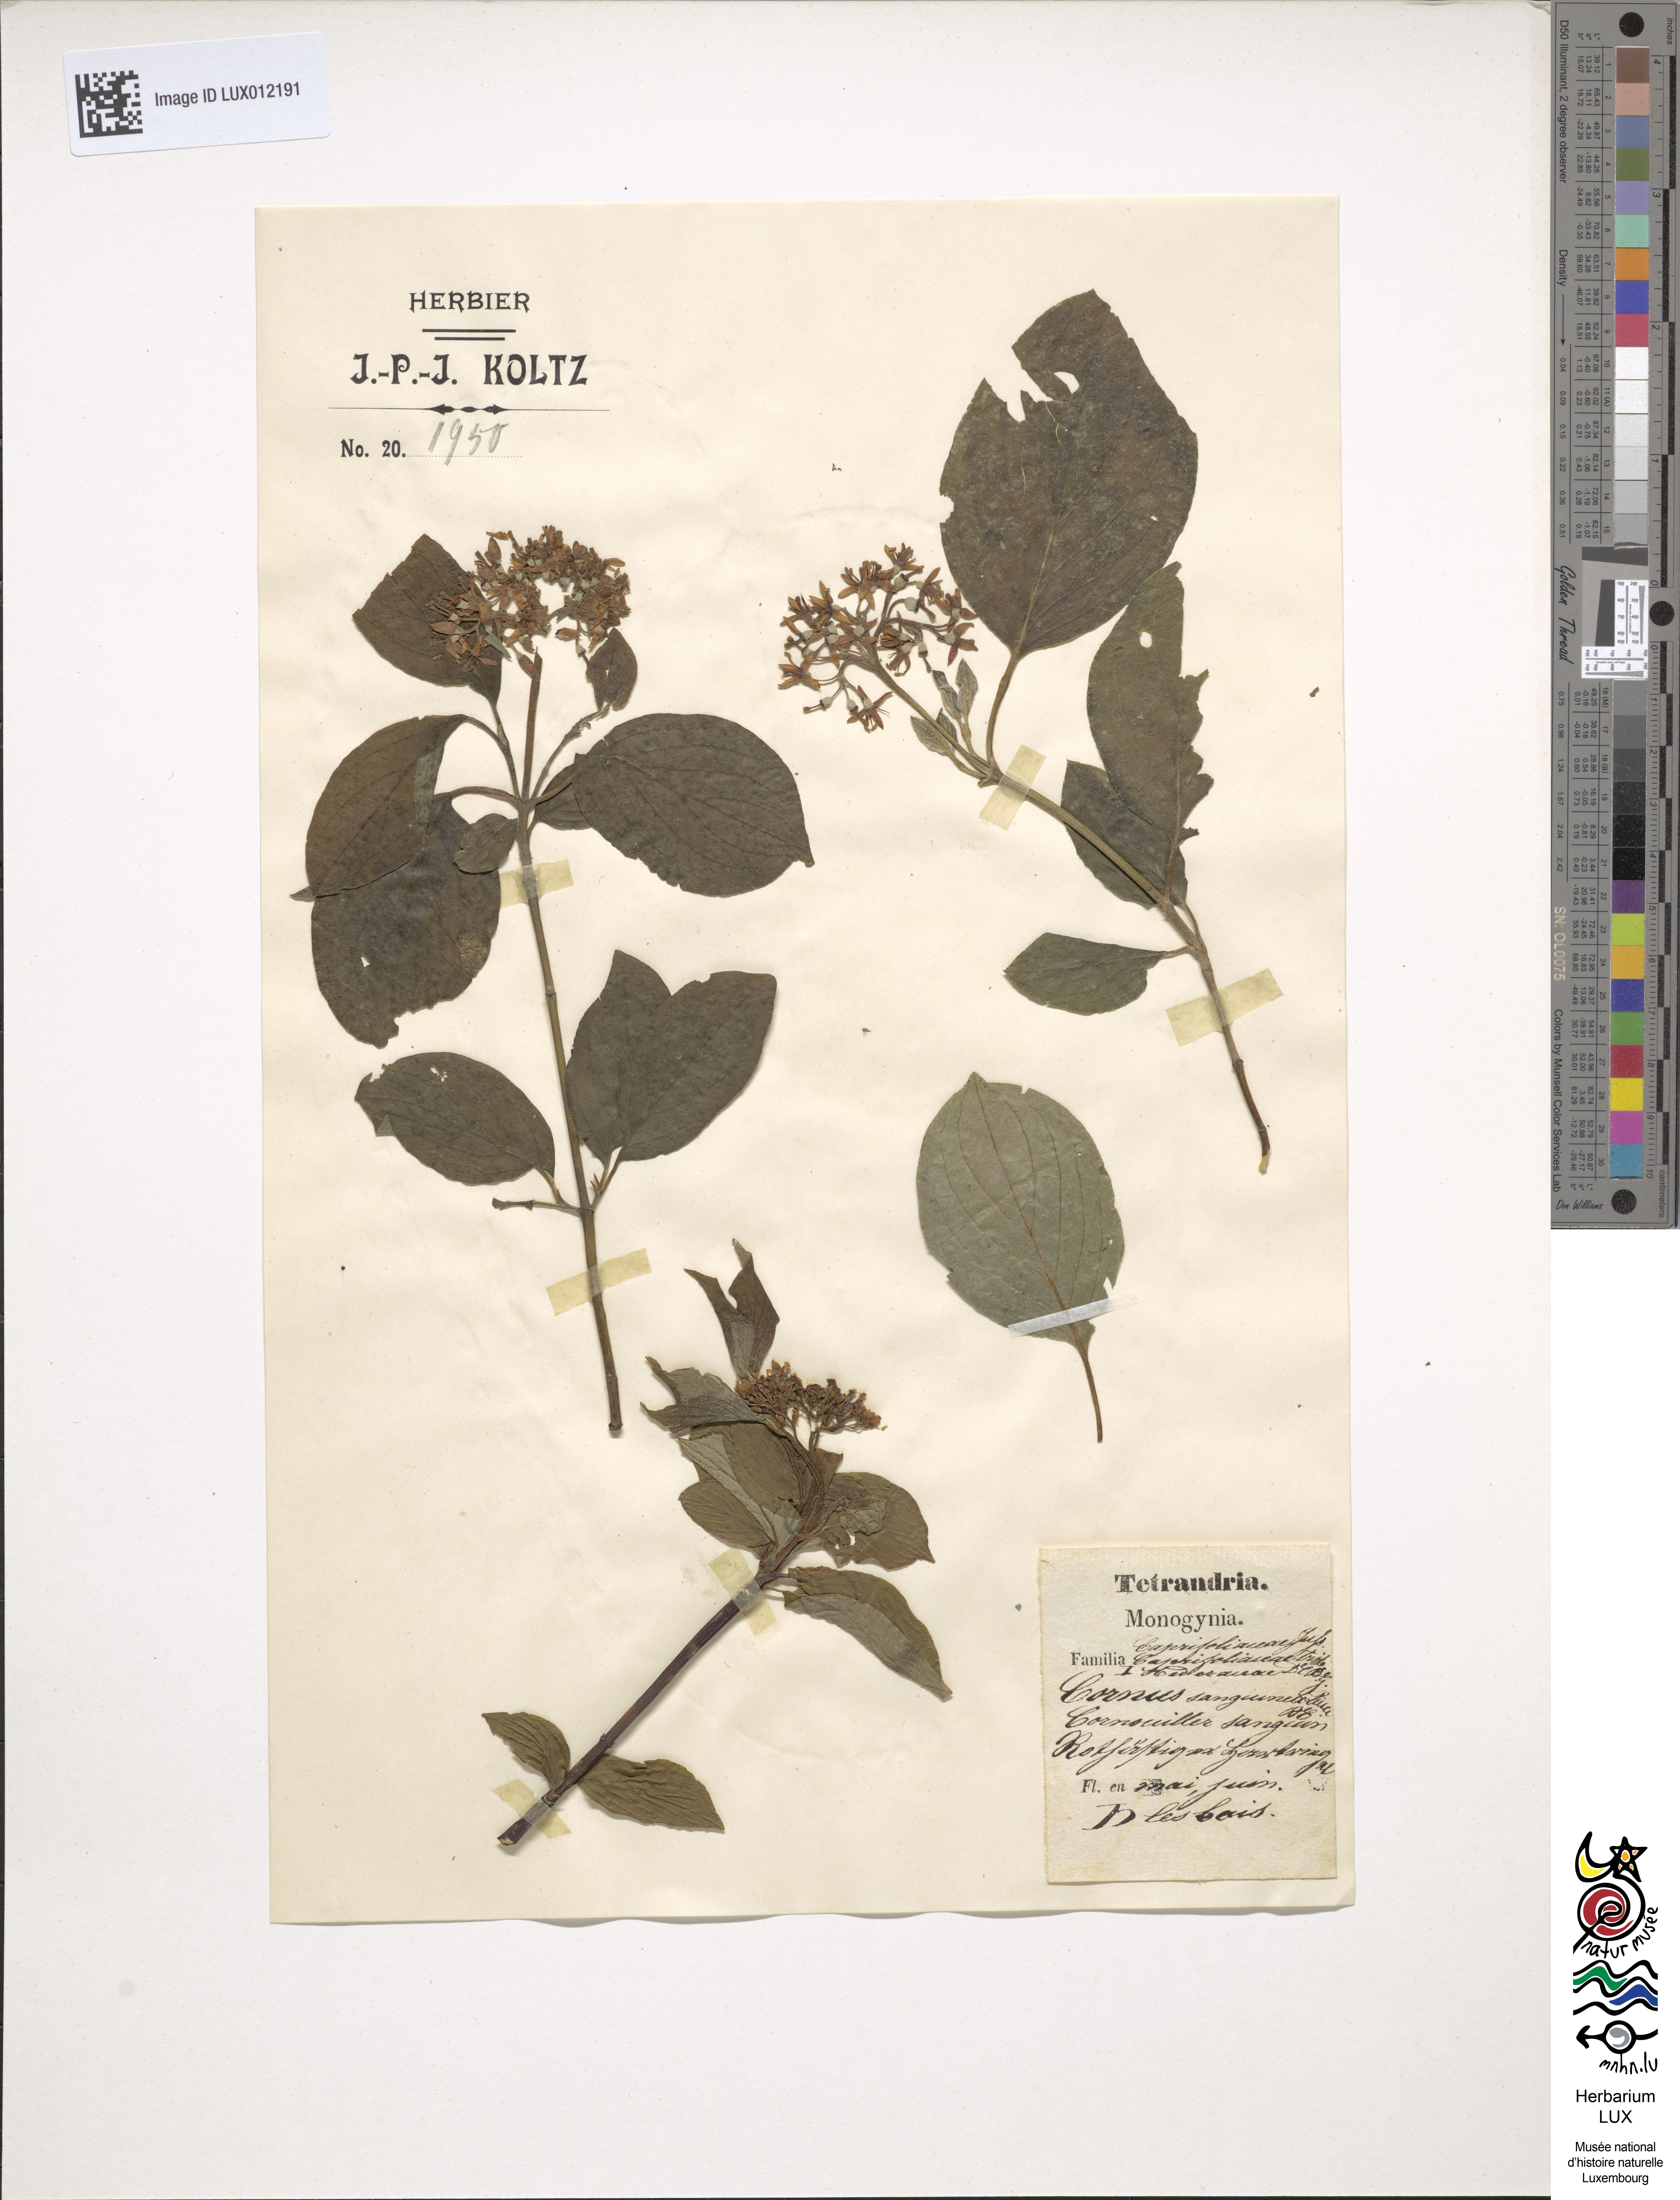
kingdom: Plantae
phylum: Tracheophyta
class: Magnoliopsida
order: Cornales
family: Cornaceae
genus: Cornus
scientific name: Cornus sanguinea
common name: Dogwood
